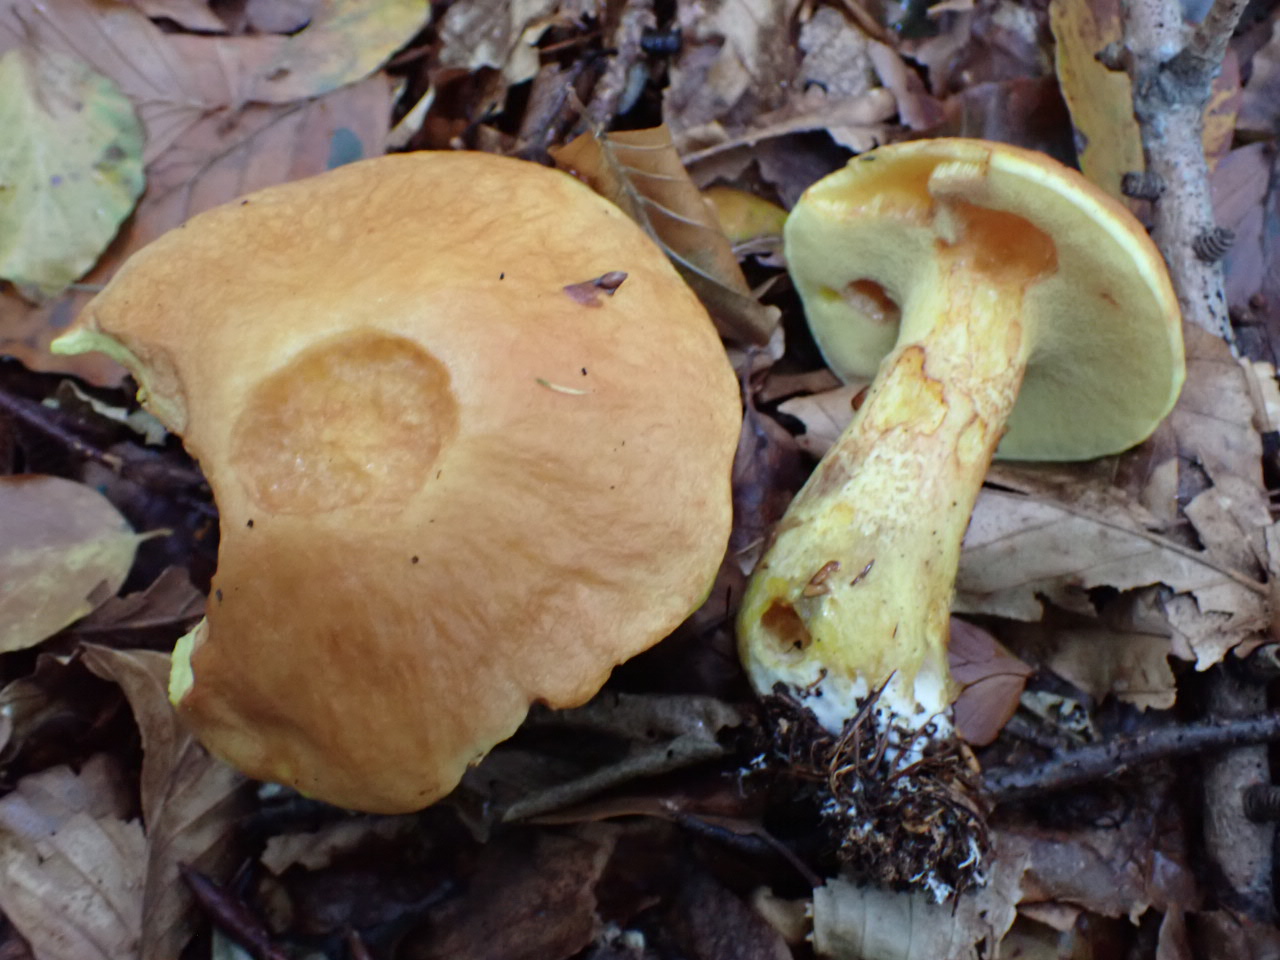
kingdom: Fungi
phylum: Basidiomycota
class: Agaricomycetes
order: Boletales
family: Suillaceae
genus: Suillus
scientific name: Suillus grevillei
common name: lærke-slimrørhat
